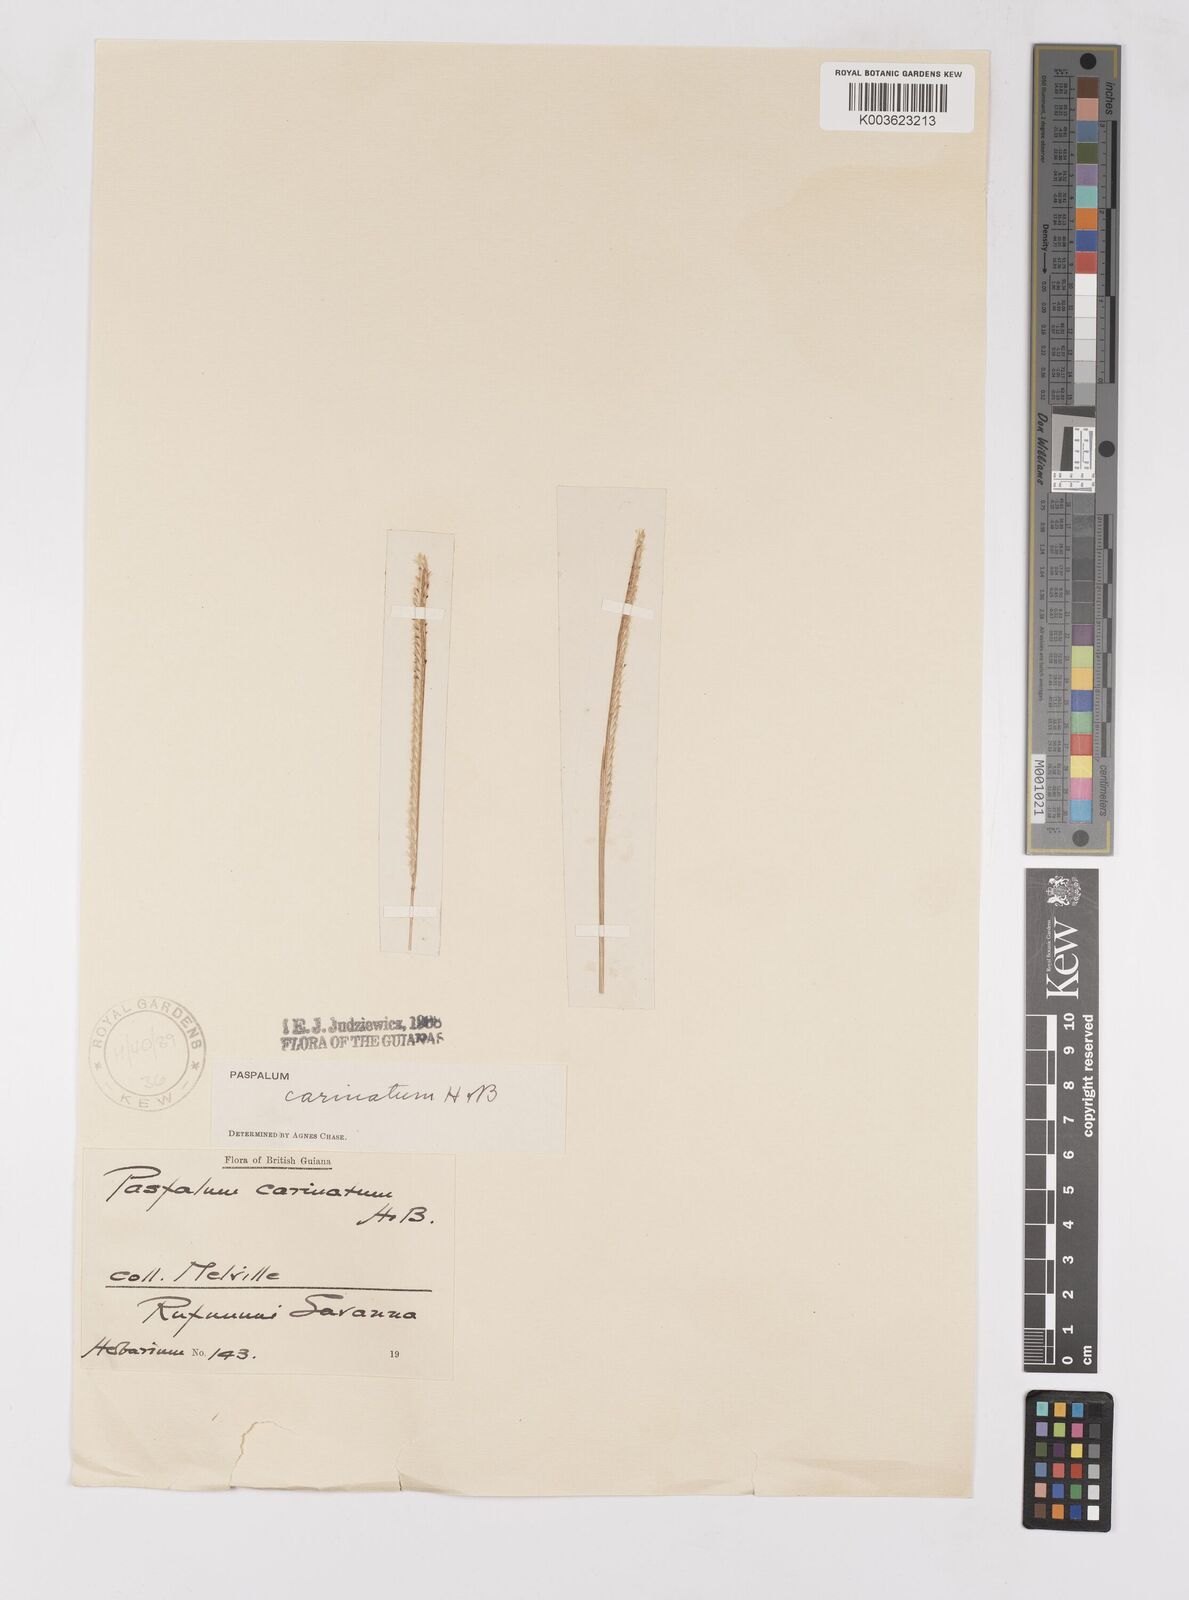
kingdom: Plantae
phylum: Tracheophyta
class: Liliopsida
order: Poales
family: Poaceae
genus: Paspalum
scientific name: Paspalum carinatum
